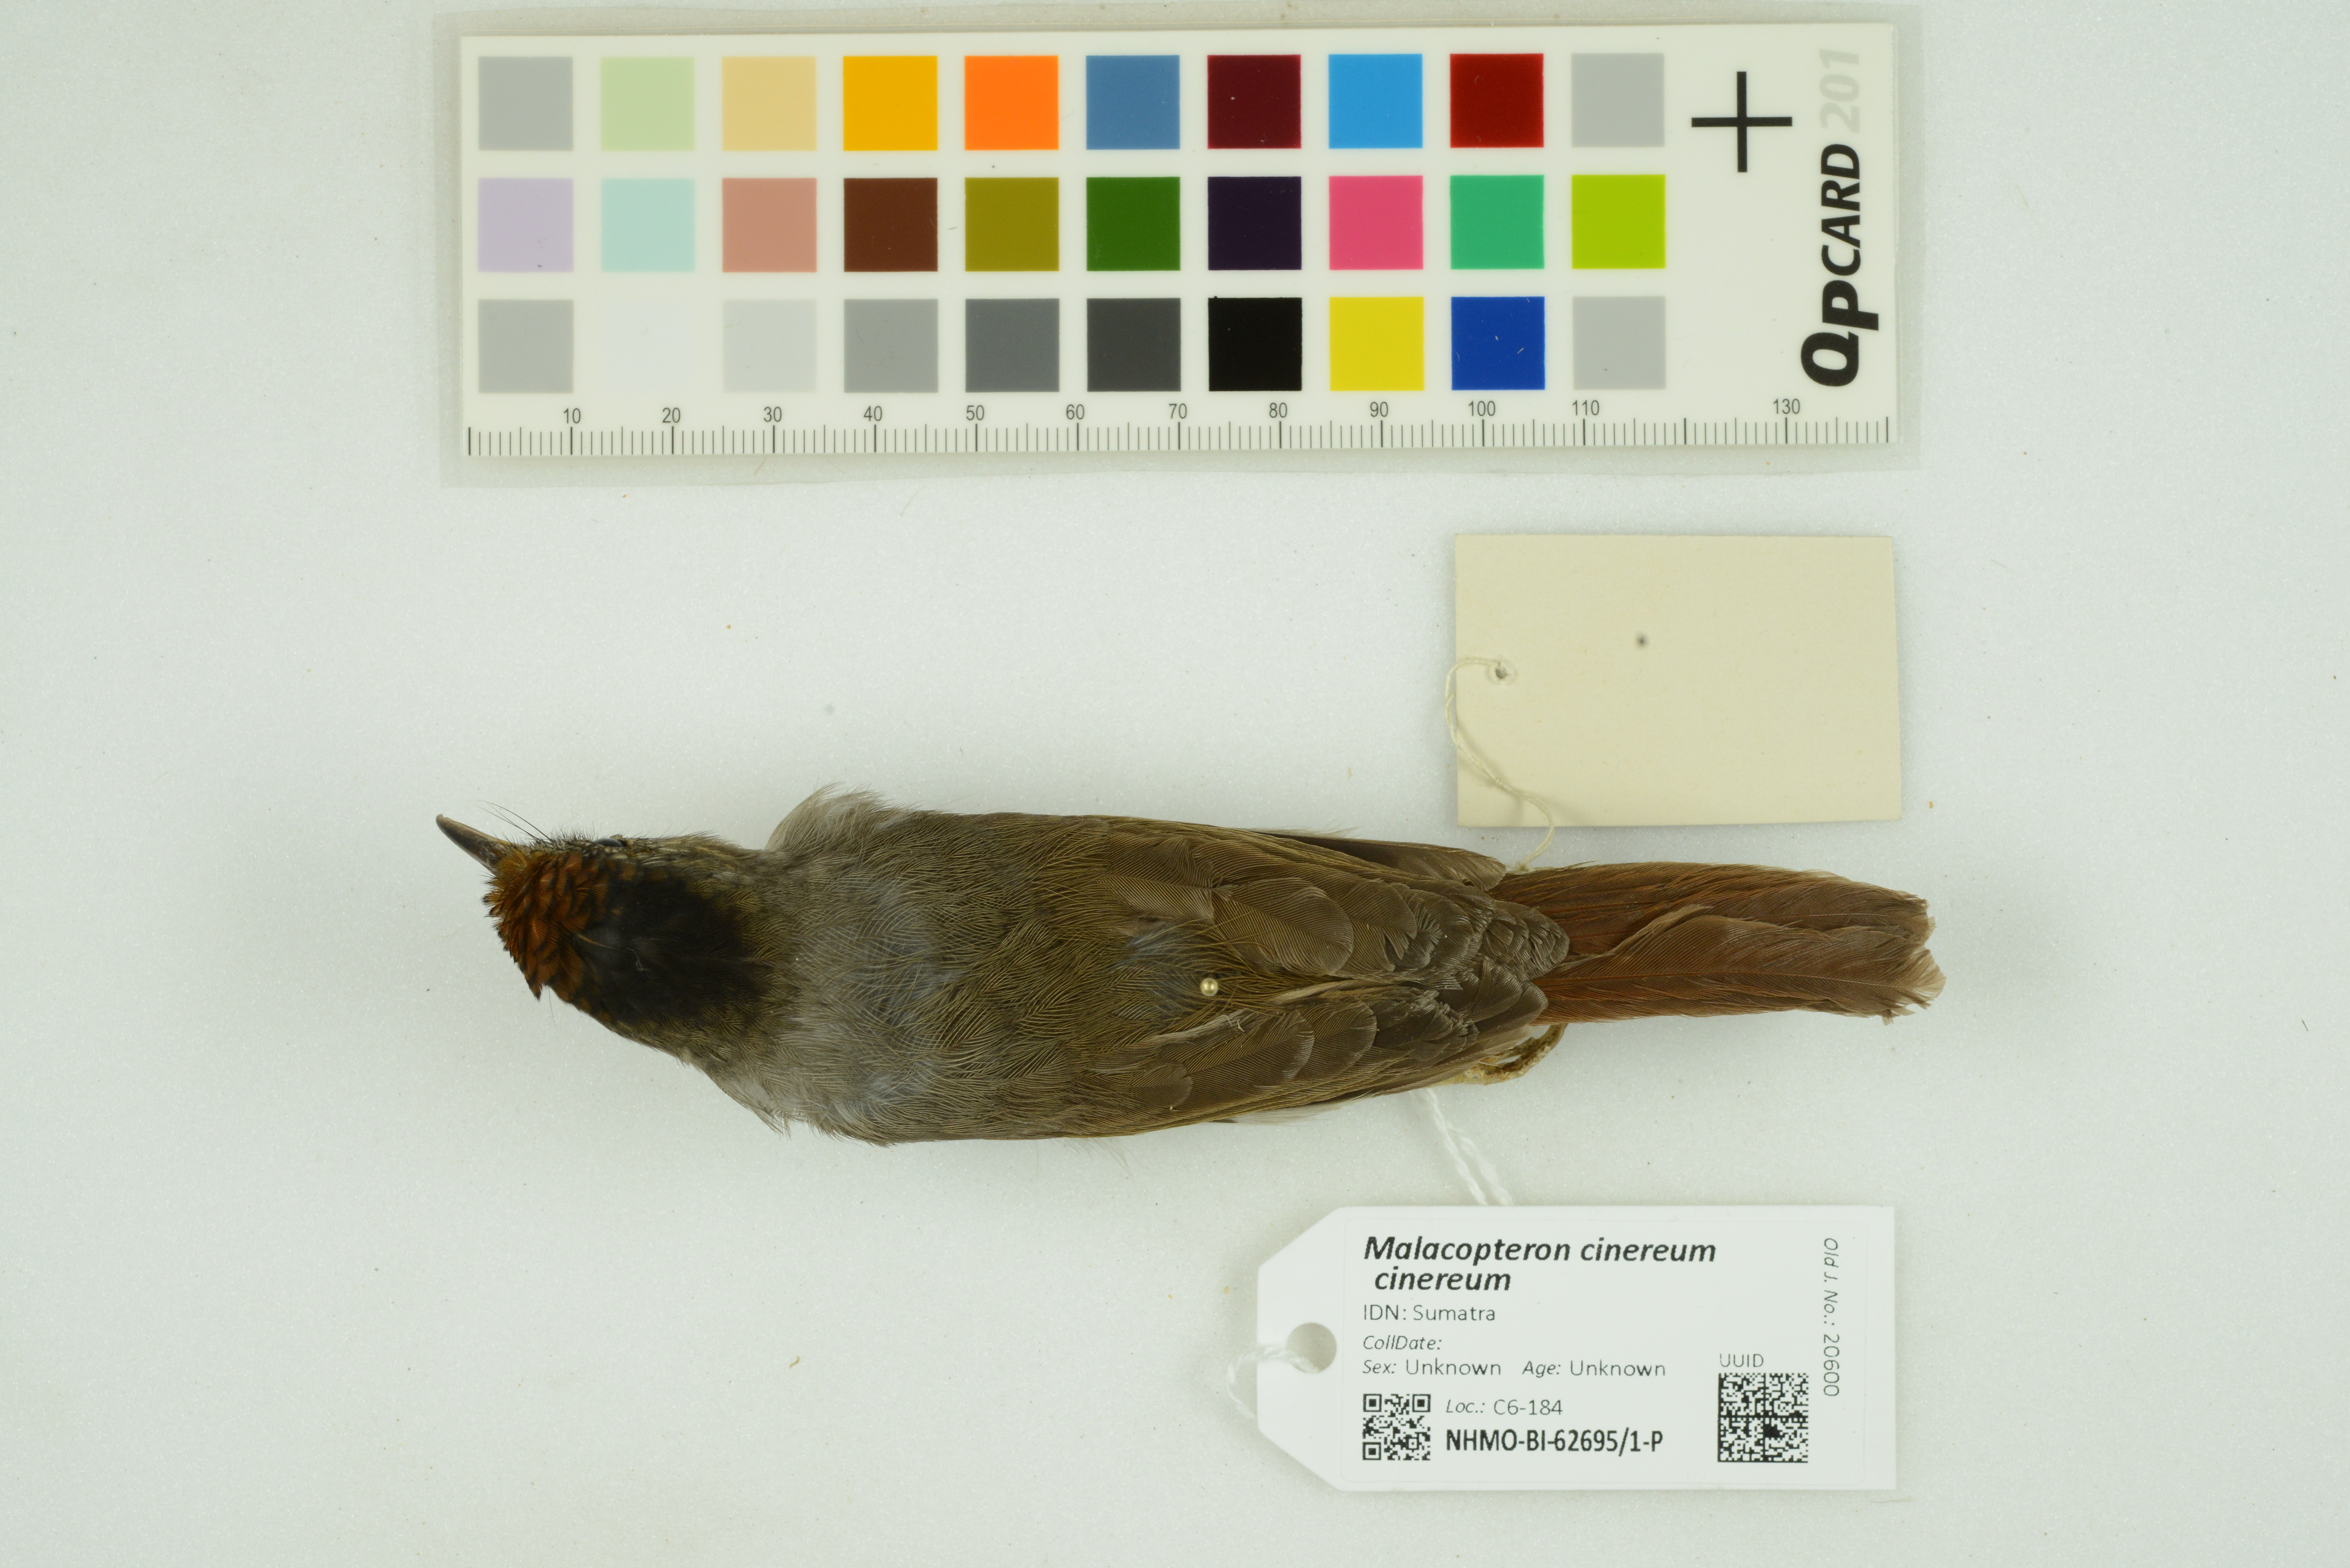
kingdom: Animalia
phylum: Chordata
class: Aves
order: Passeriformes
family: Pellorneidae
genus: Malacopteron
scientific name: Malacopteron cinereum
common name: Scaly-crowned babbler
